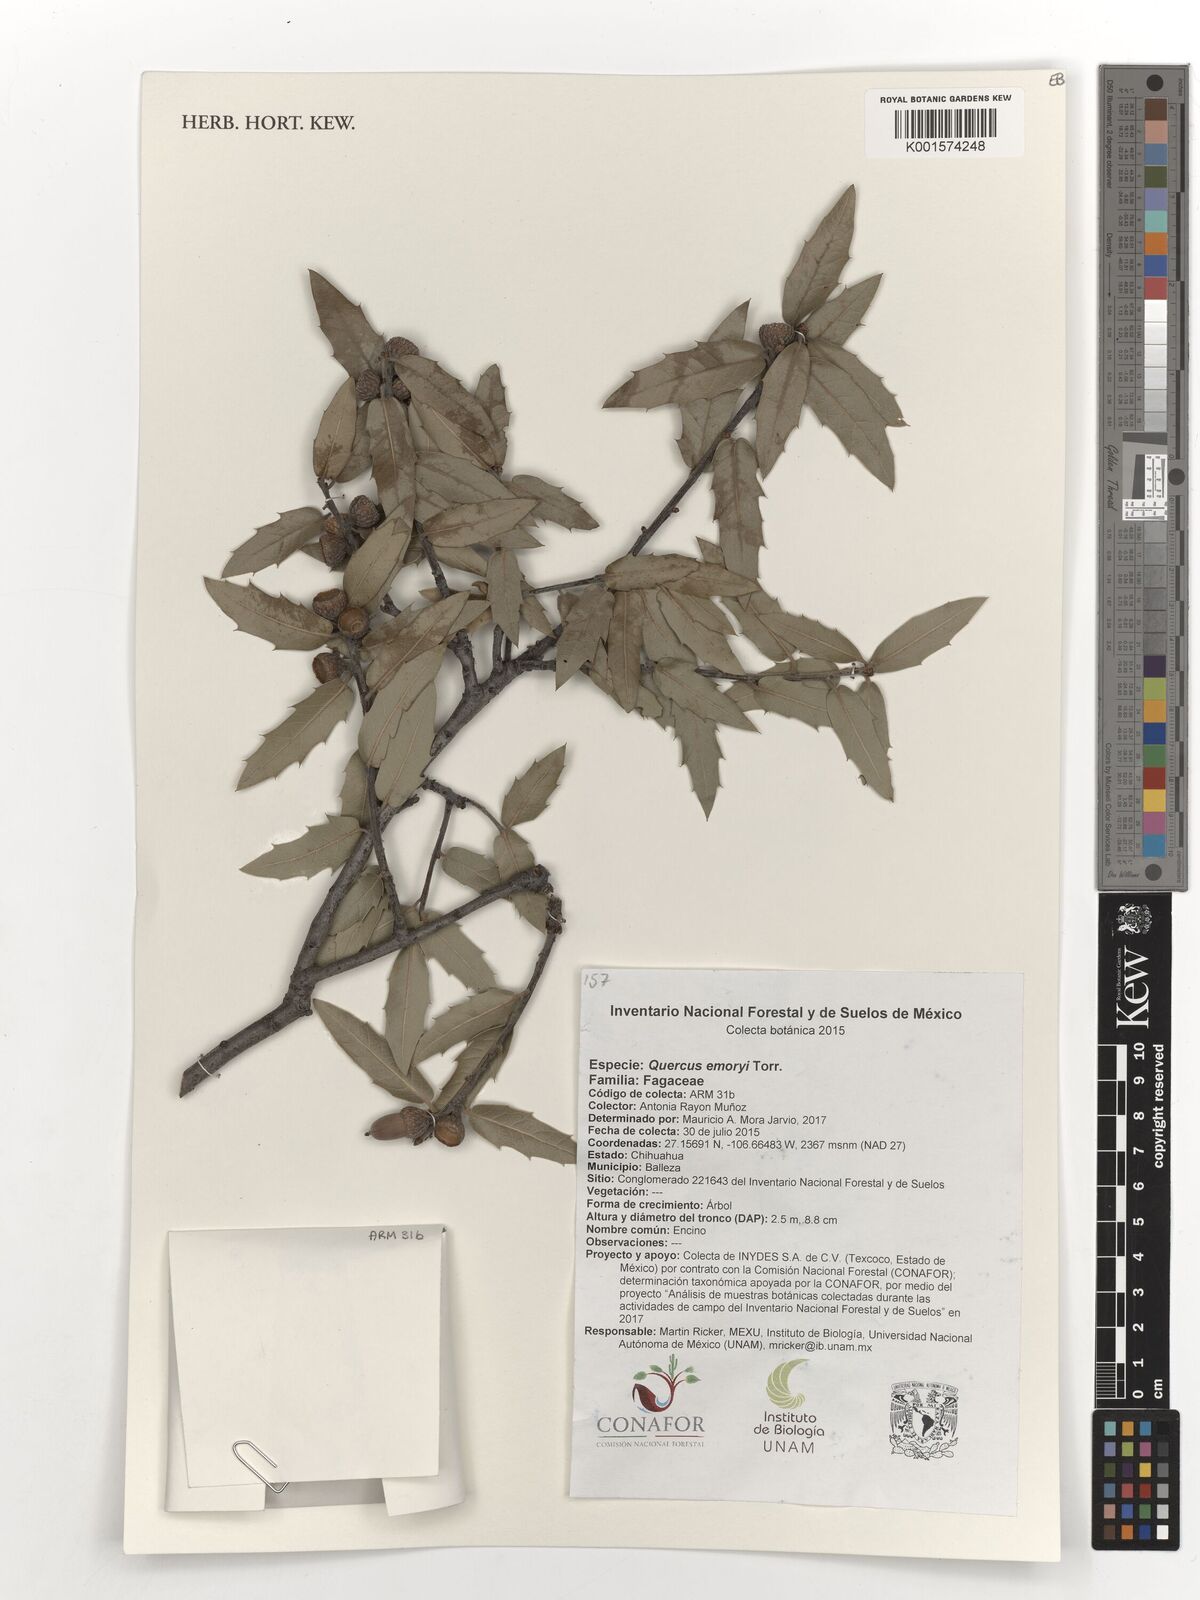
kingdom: Plantae
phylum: Tracheophyta
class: Magnoliopsida
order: Fagales
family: Fagaceae
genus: Quercus
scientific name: Quercus emoryi
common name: Emory oak
